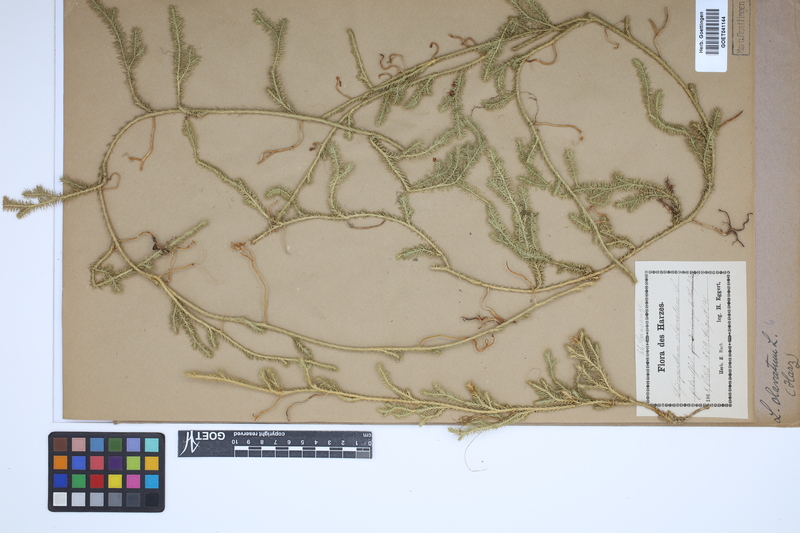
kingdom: Plantae
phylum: Tracheophyta
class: Lycopodiopsida
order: Lycopodiales
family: Lycopodiaceae
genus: Lycopodium
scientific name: Lycopodium clavatum
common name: Stag's-horn clubmoss
